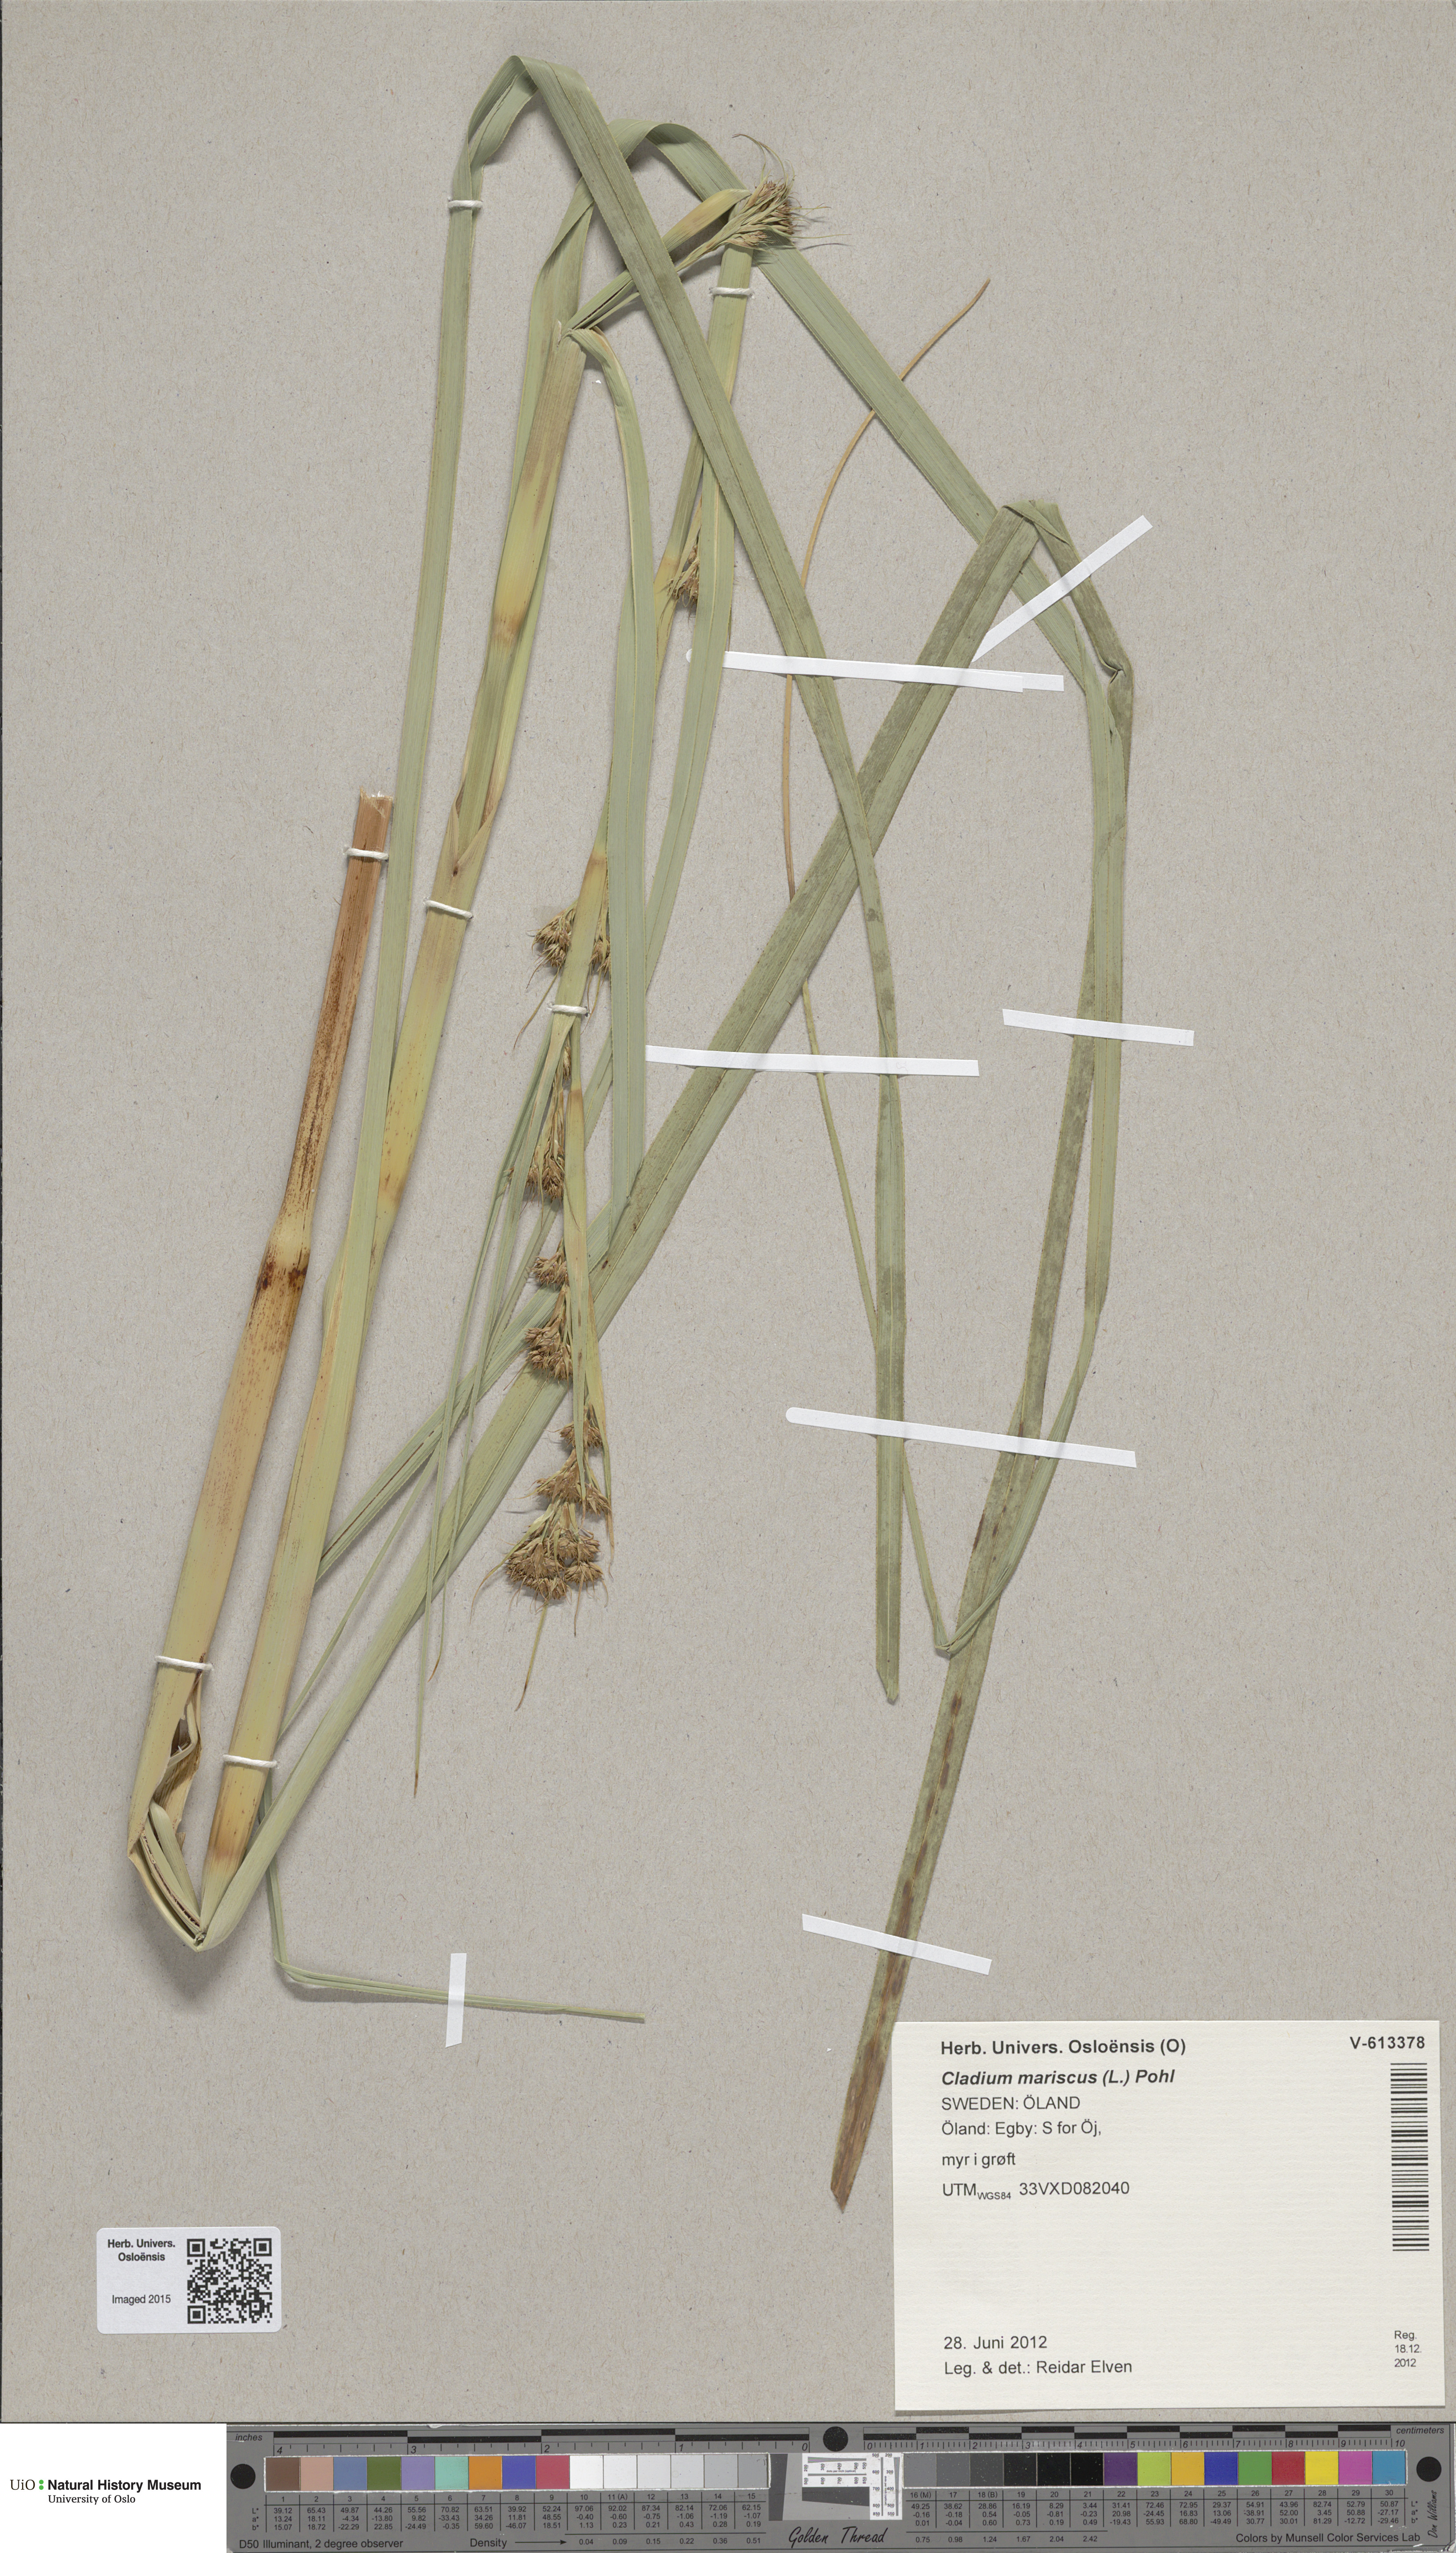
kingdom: Plantae
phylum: Tracheophyta
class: Liliopsida
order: Poales
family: Cyperaceae
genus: Cladium
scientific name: Cladium mariscus
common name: Great fen-sedge
